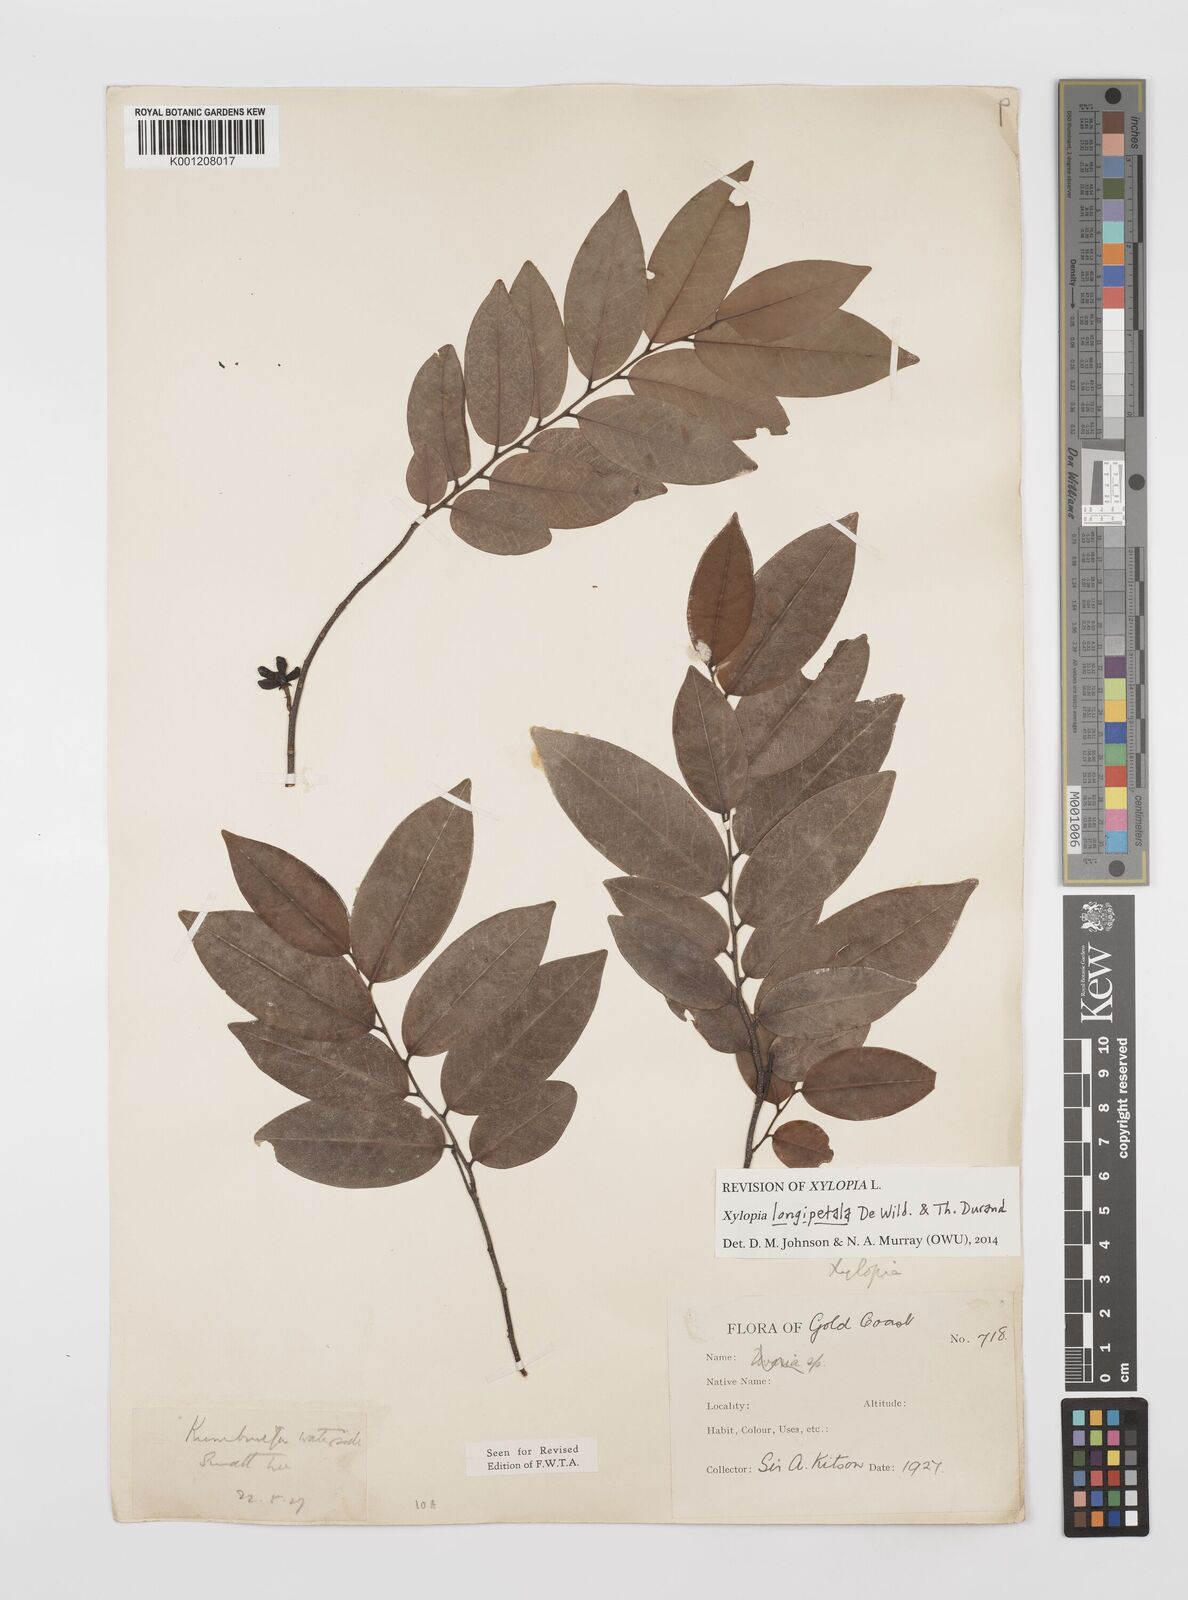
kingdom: Plantae
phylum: Tracheophyta
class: Magnoliopsida
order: Magnoliales
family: Annonaceae
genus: Xylopia
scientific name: Xylopia parviflora
